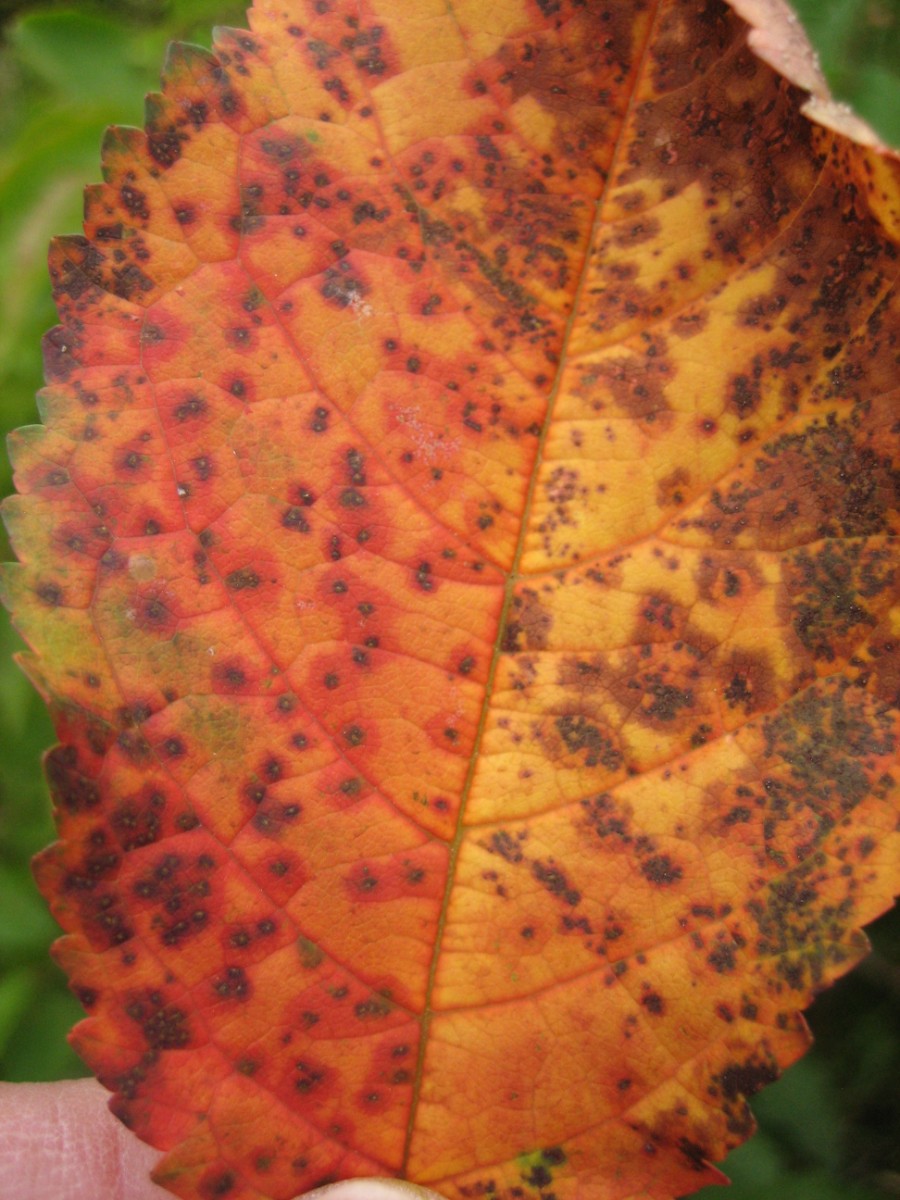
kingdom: Fungi
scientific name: Fungi
